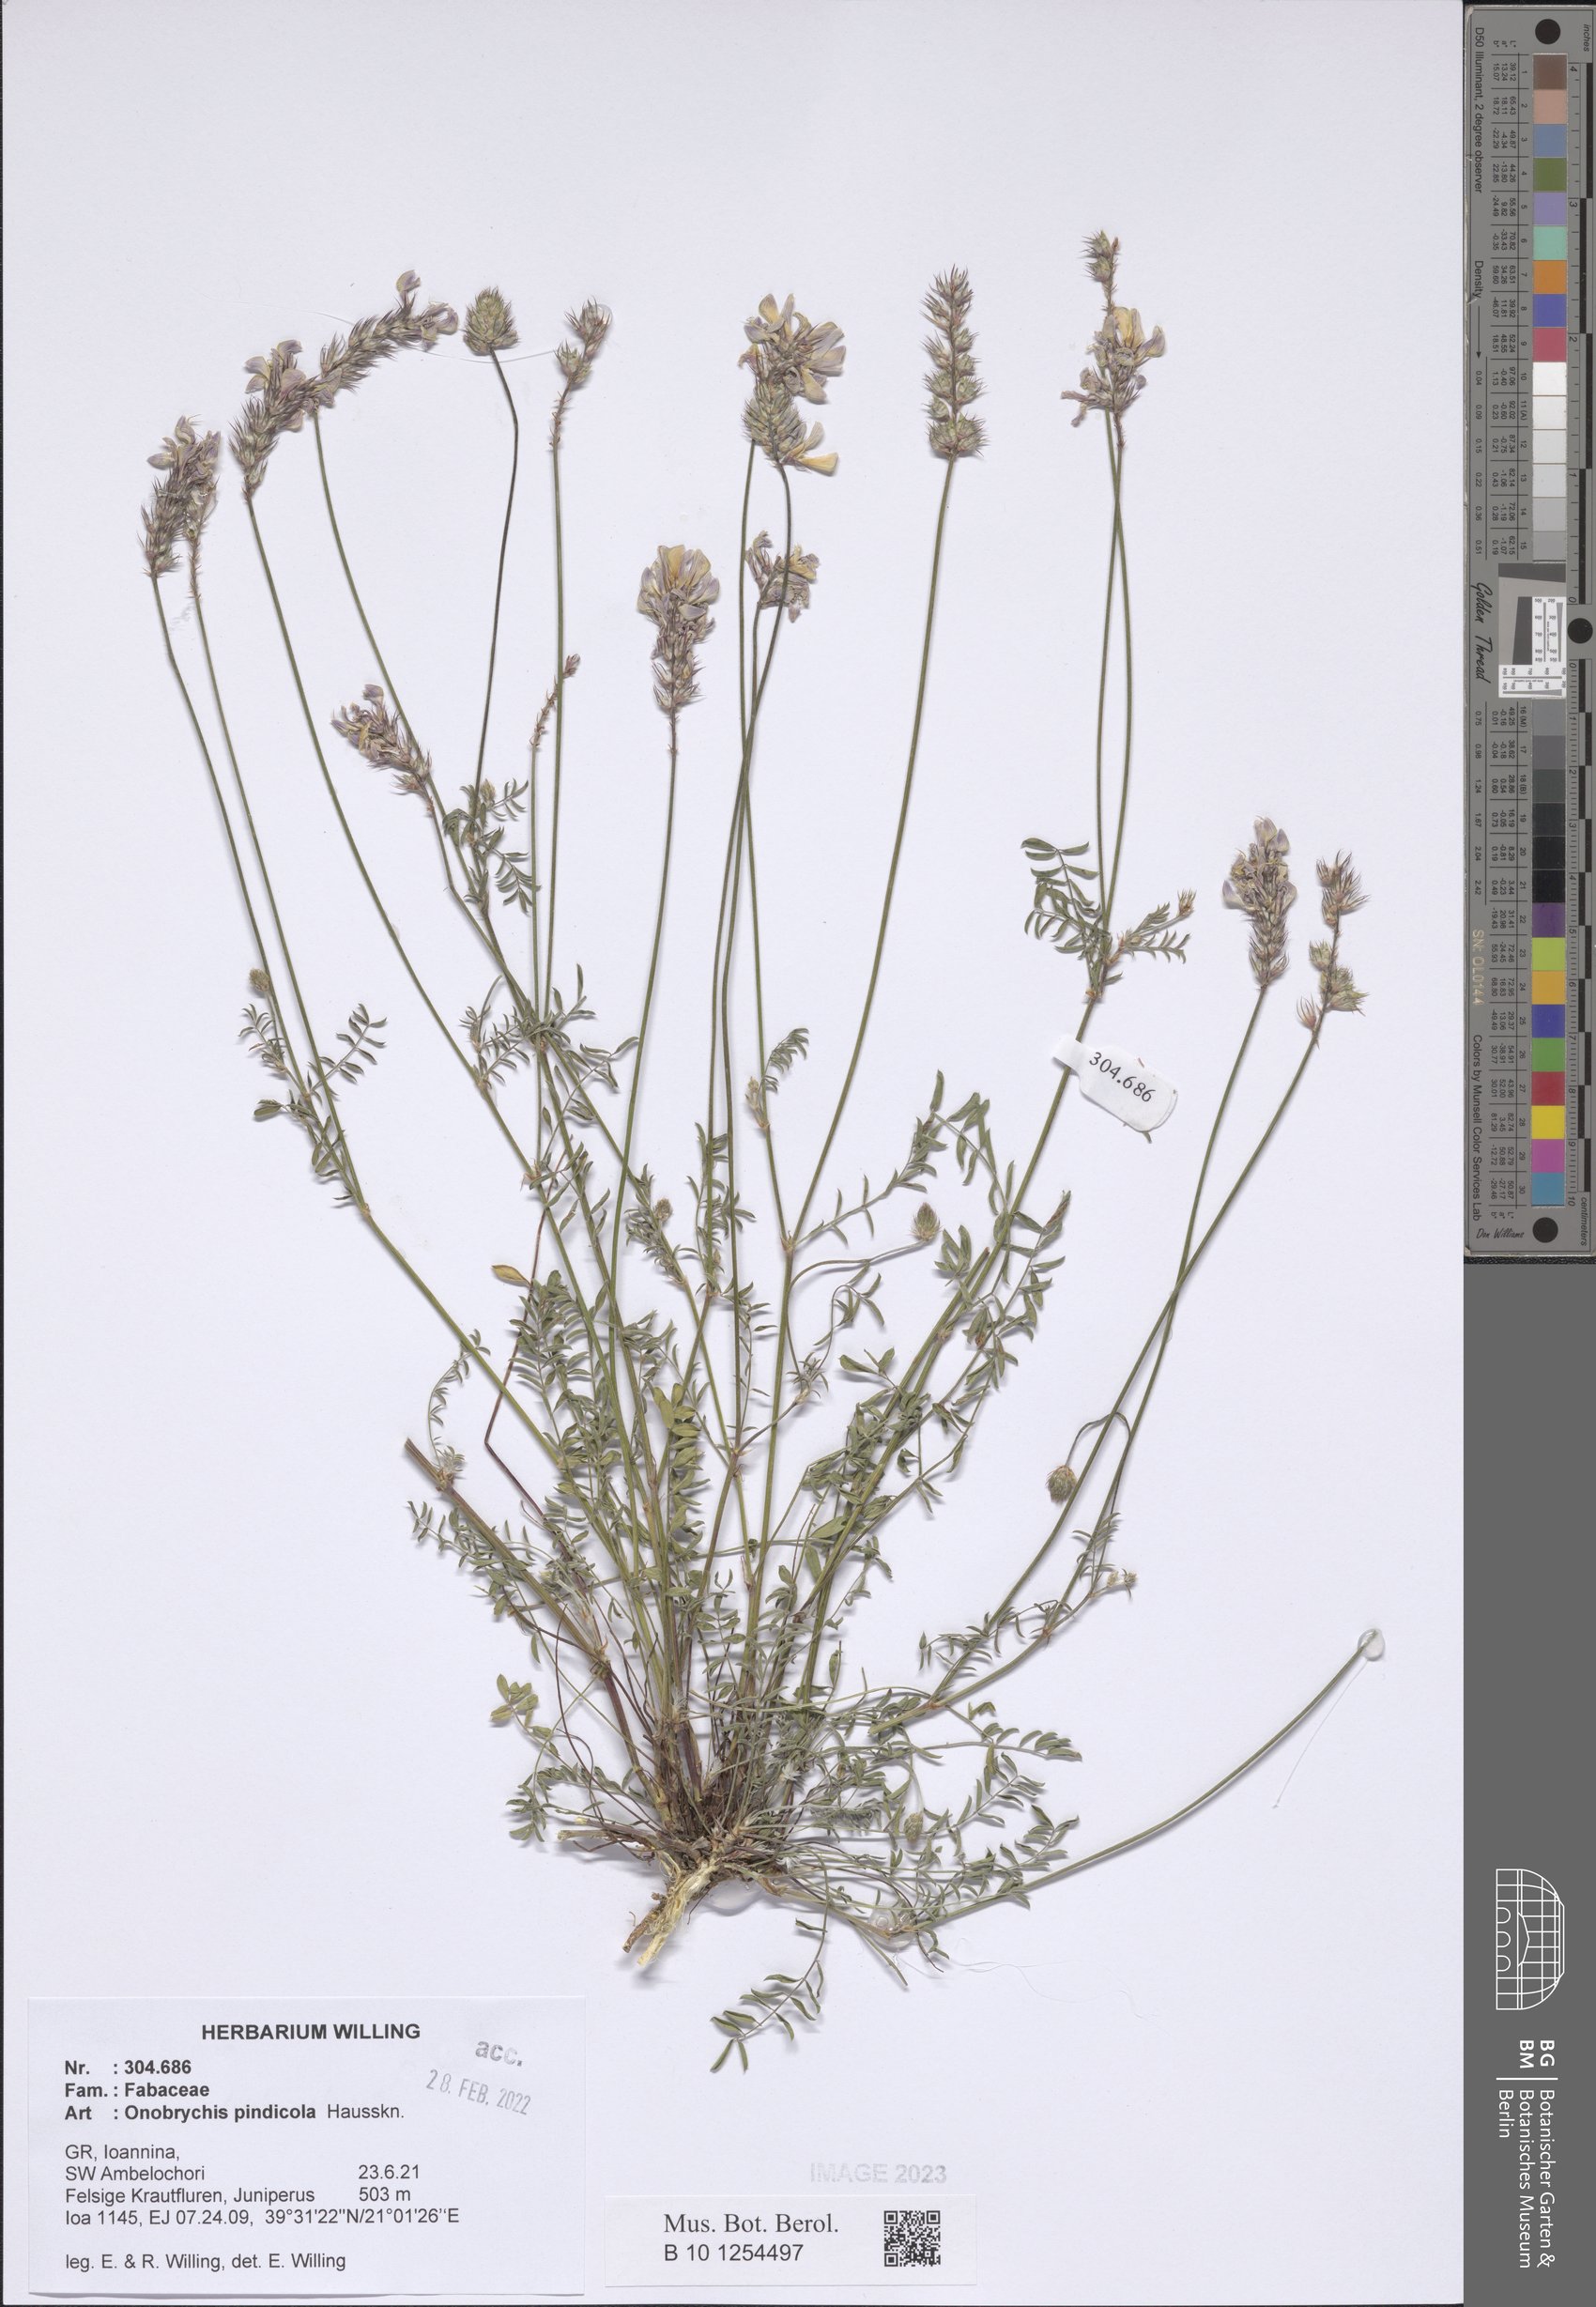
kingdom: Plantae
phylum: Tracheophyta
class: Magnoliopsida
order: Fabales
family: Fabaceae
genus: Onobrychis
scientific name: Onobrychis pindicola
